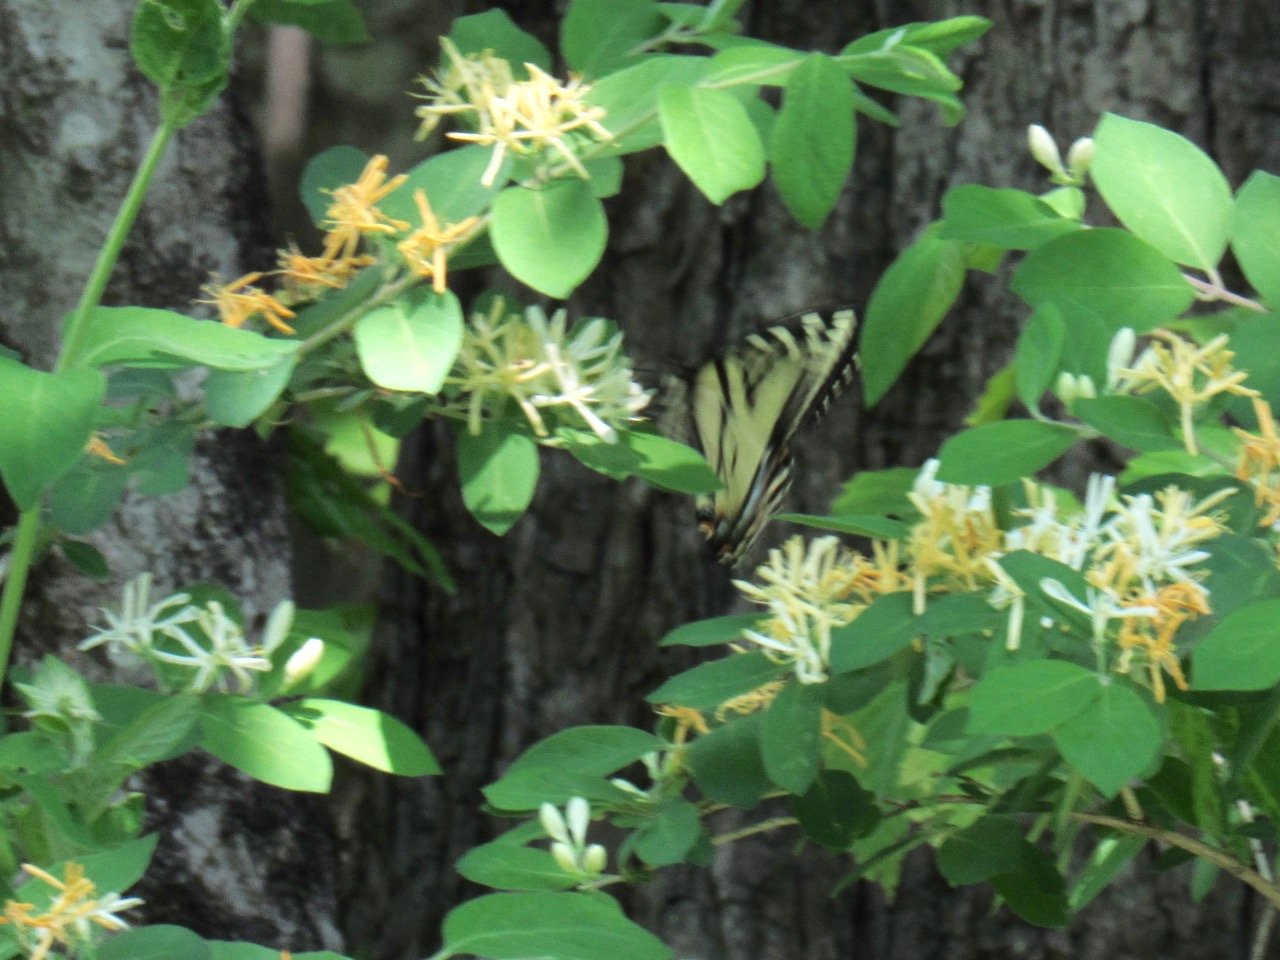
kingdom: Animalia
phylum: Arthropoda
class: Insecta
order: Lepidoptera
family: Papilionidae
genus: Pterourus
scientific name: Pterourus canadensis
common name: Canadian Tiger Swallowtail
